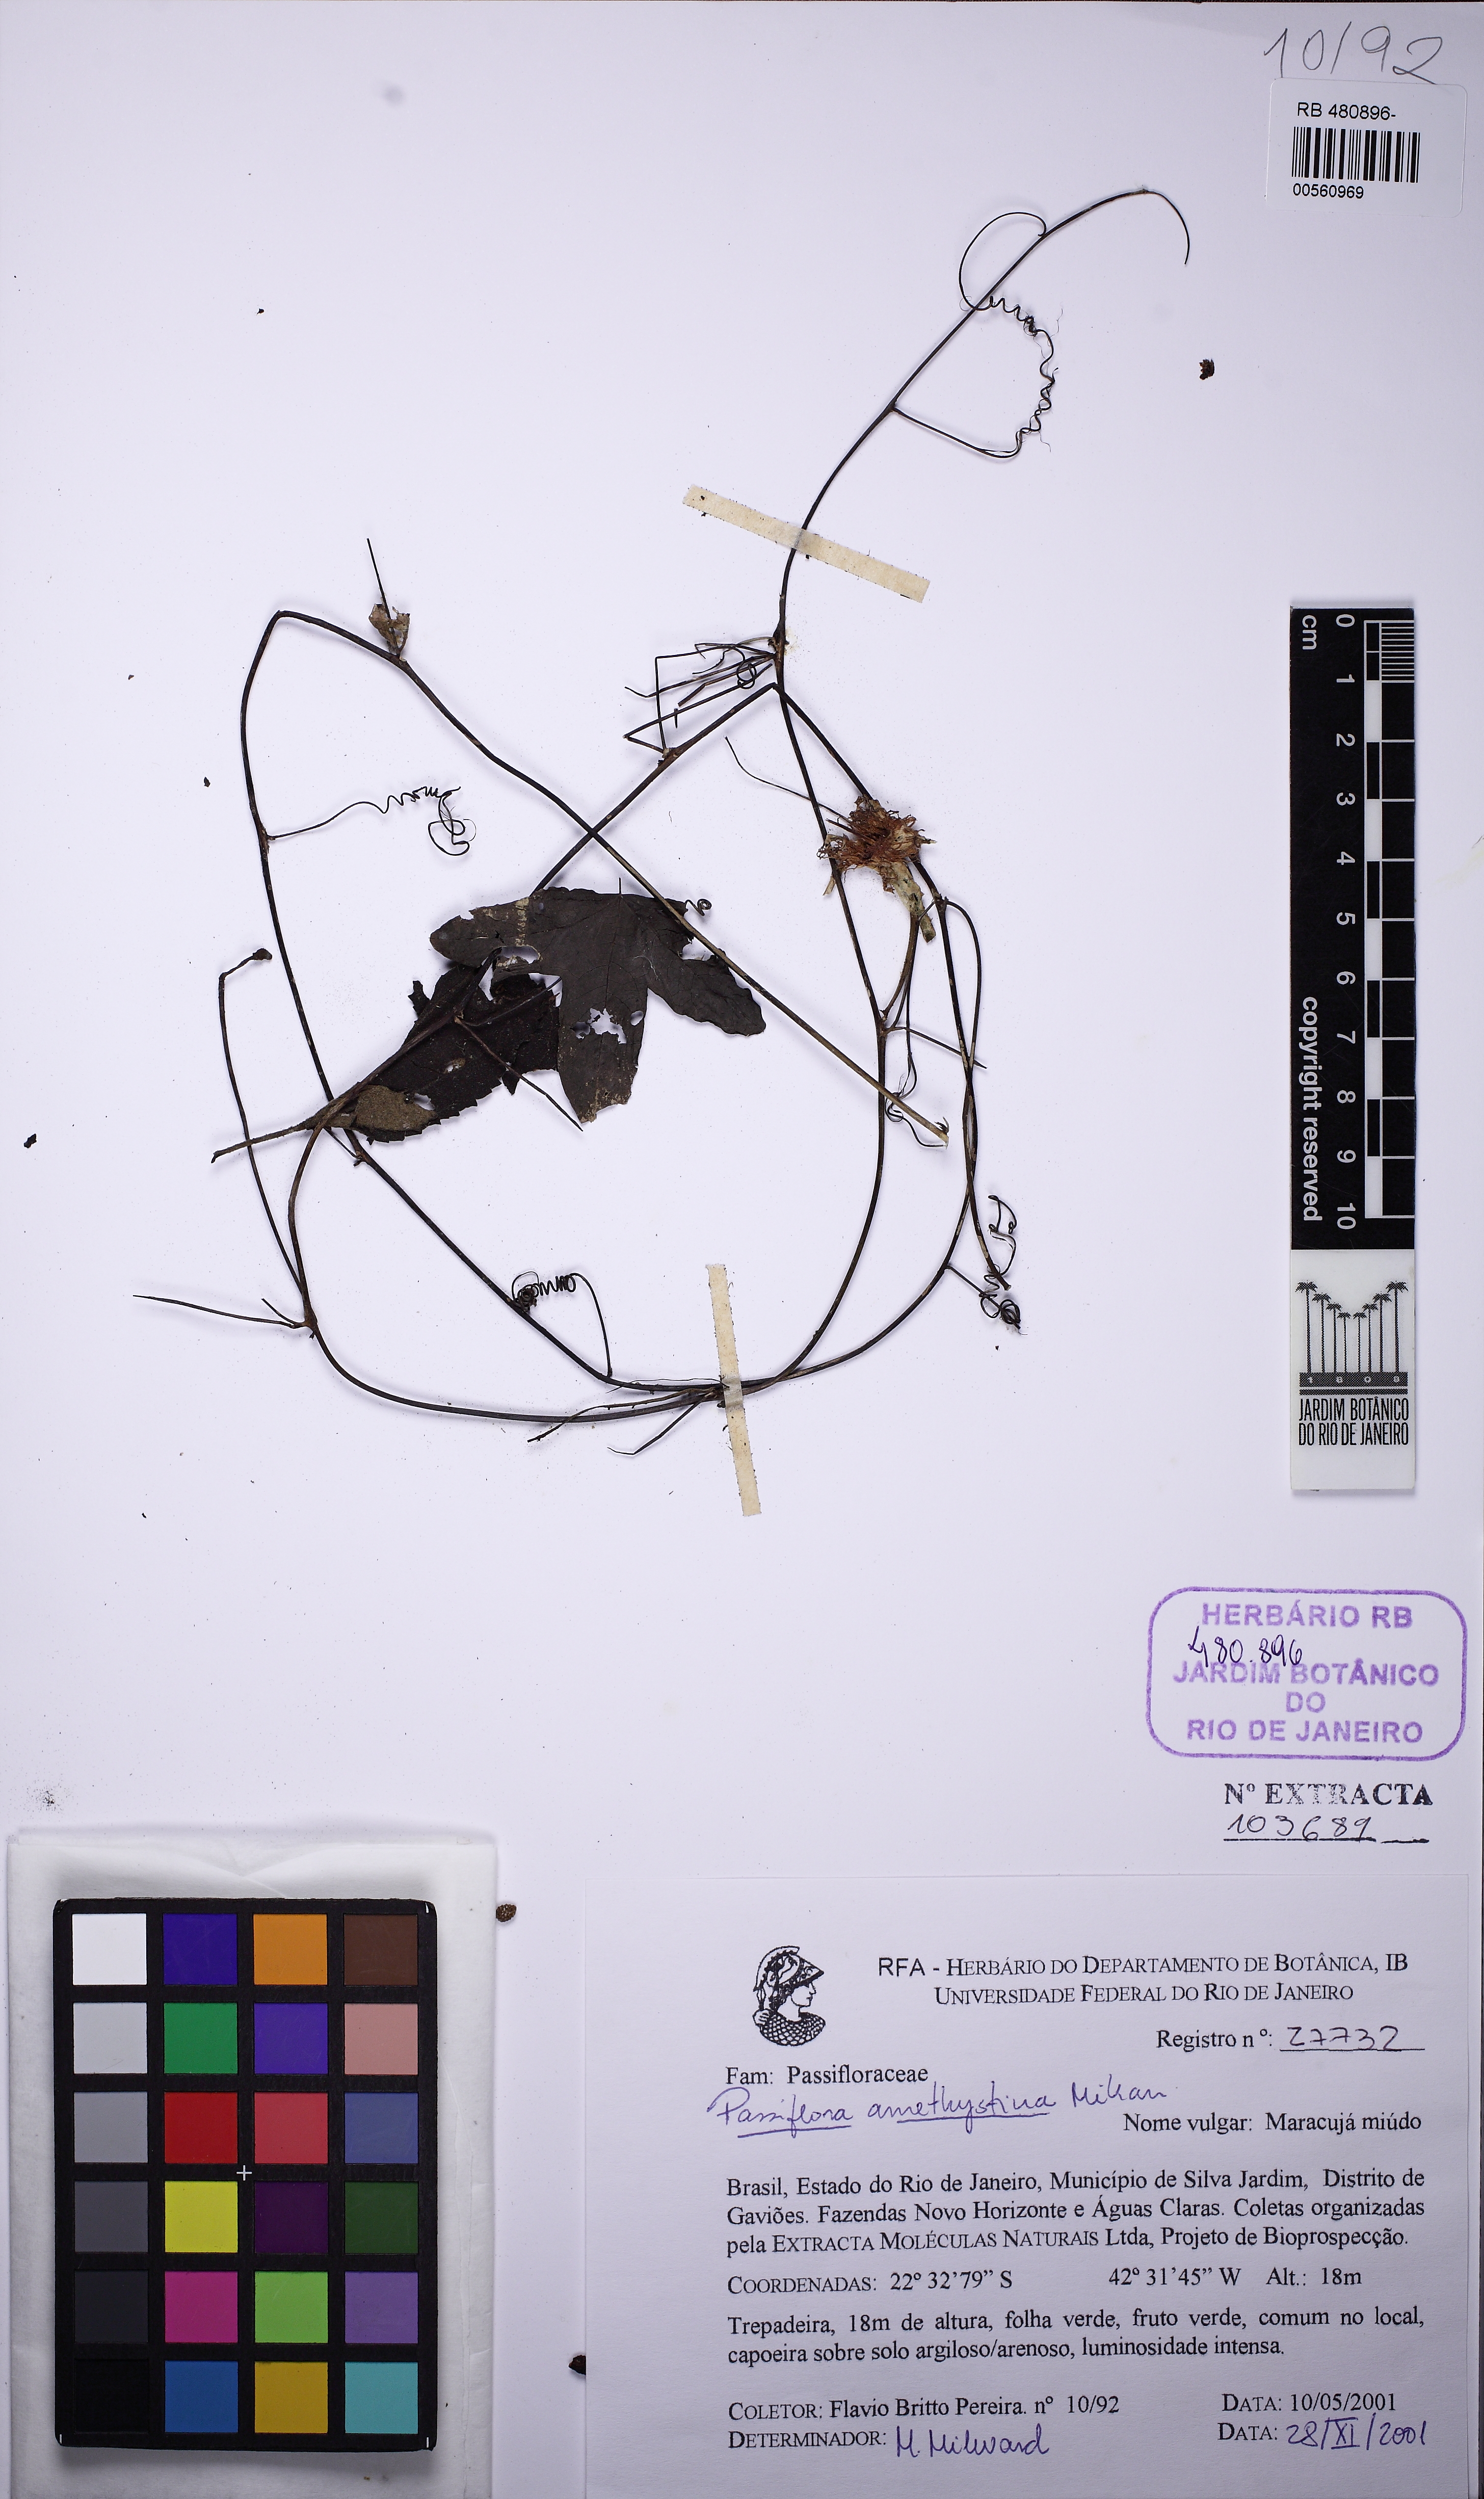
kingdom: Plantae
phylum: Tracheophyta
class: Magnoliopsida
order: Malpighiales
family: Passifloraceae
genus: Passiflora
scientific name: Passiflora amethystina
